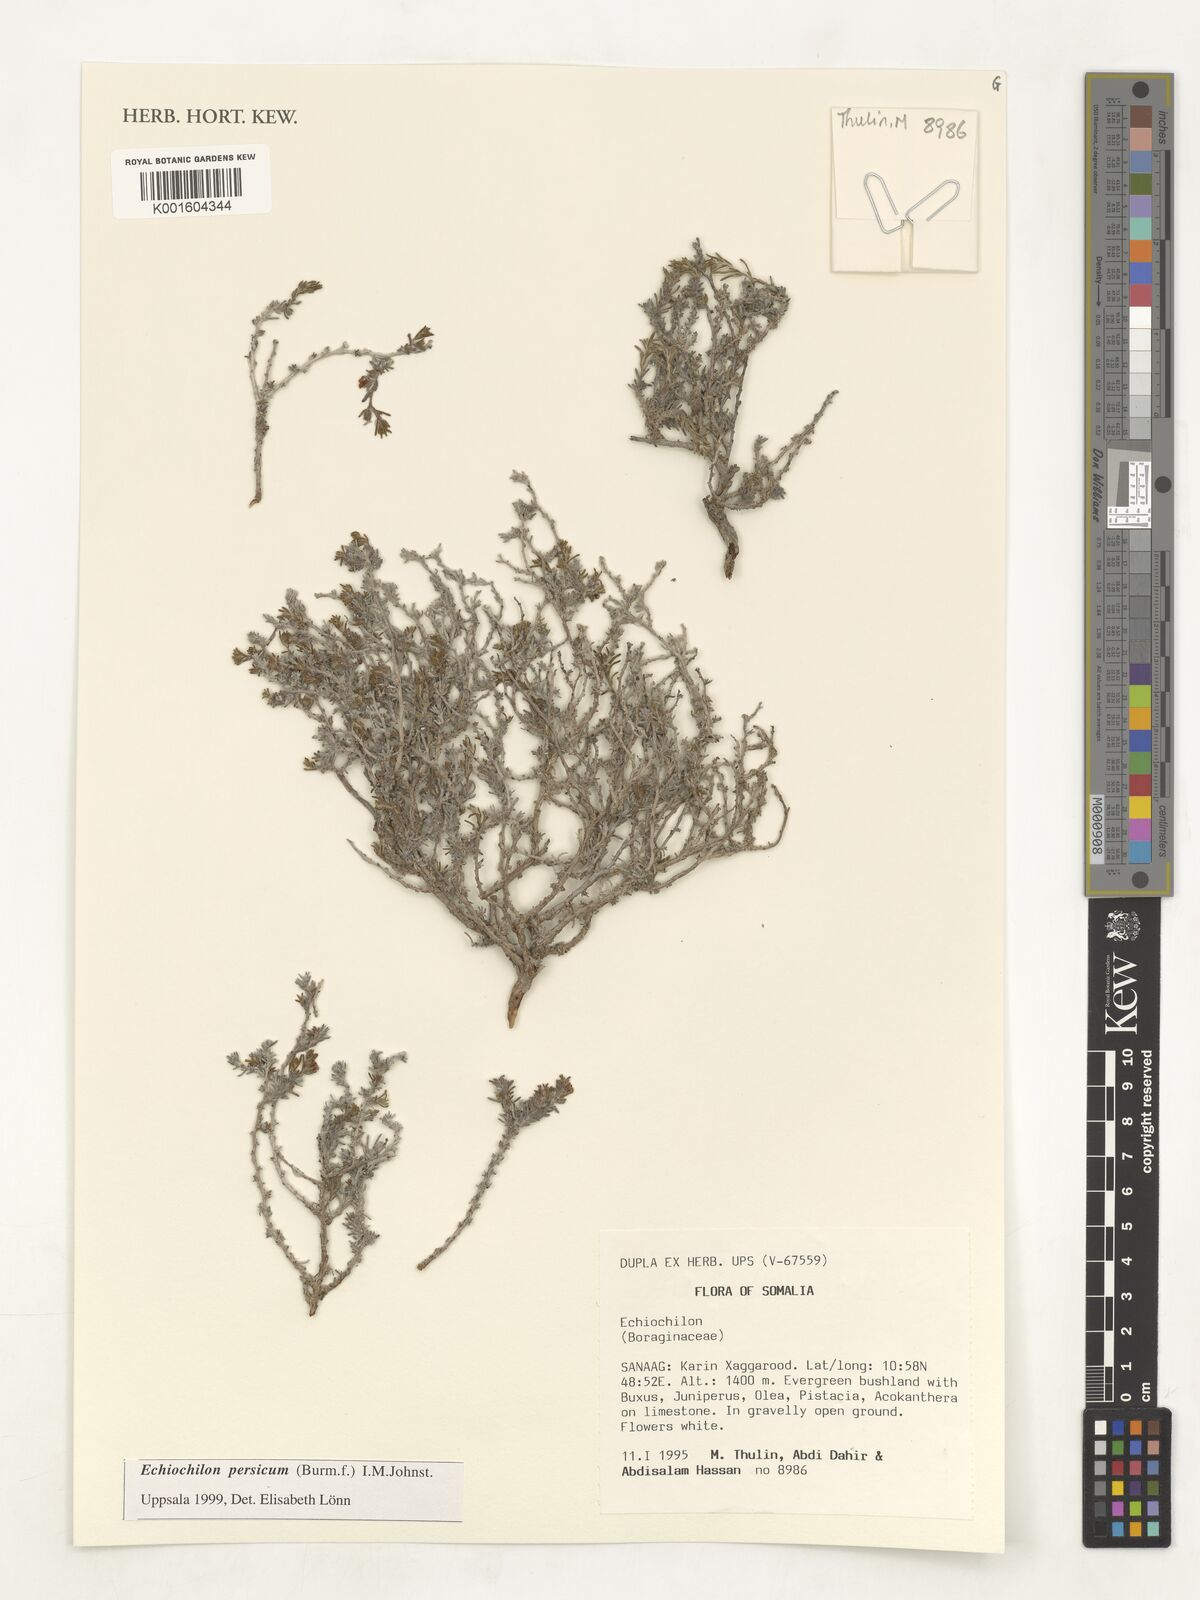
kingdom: Plantae
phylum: Tracheophyta
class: Magnoliopsida
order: Boraginales
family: Boraginaceae
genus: Echiochilon
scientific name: Echiochilon persicum
